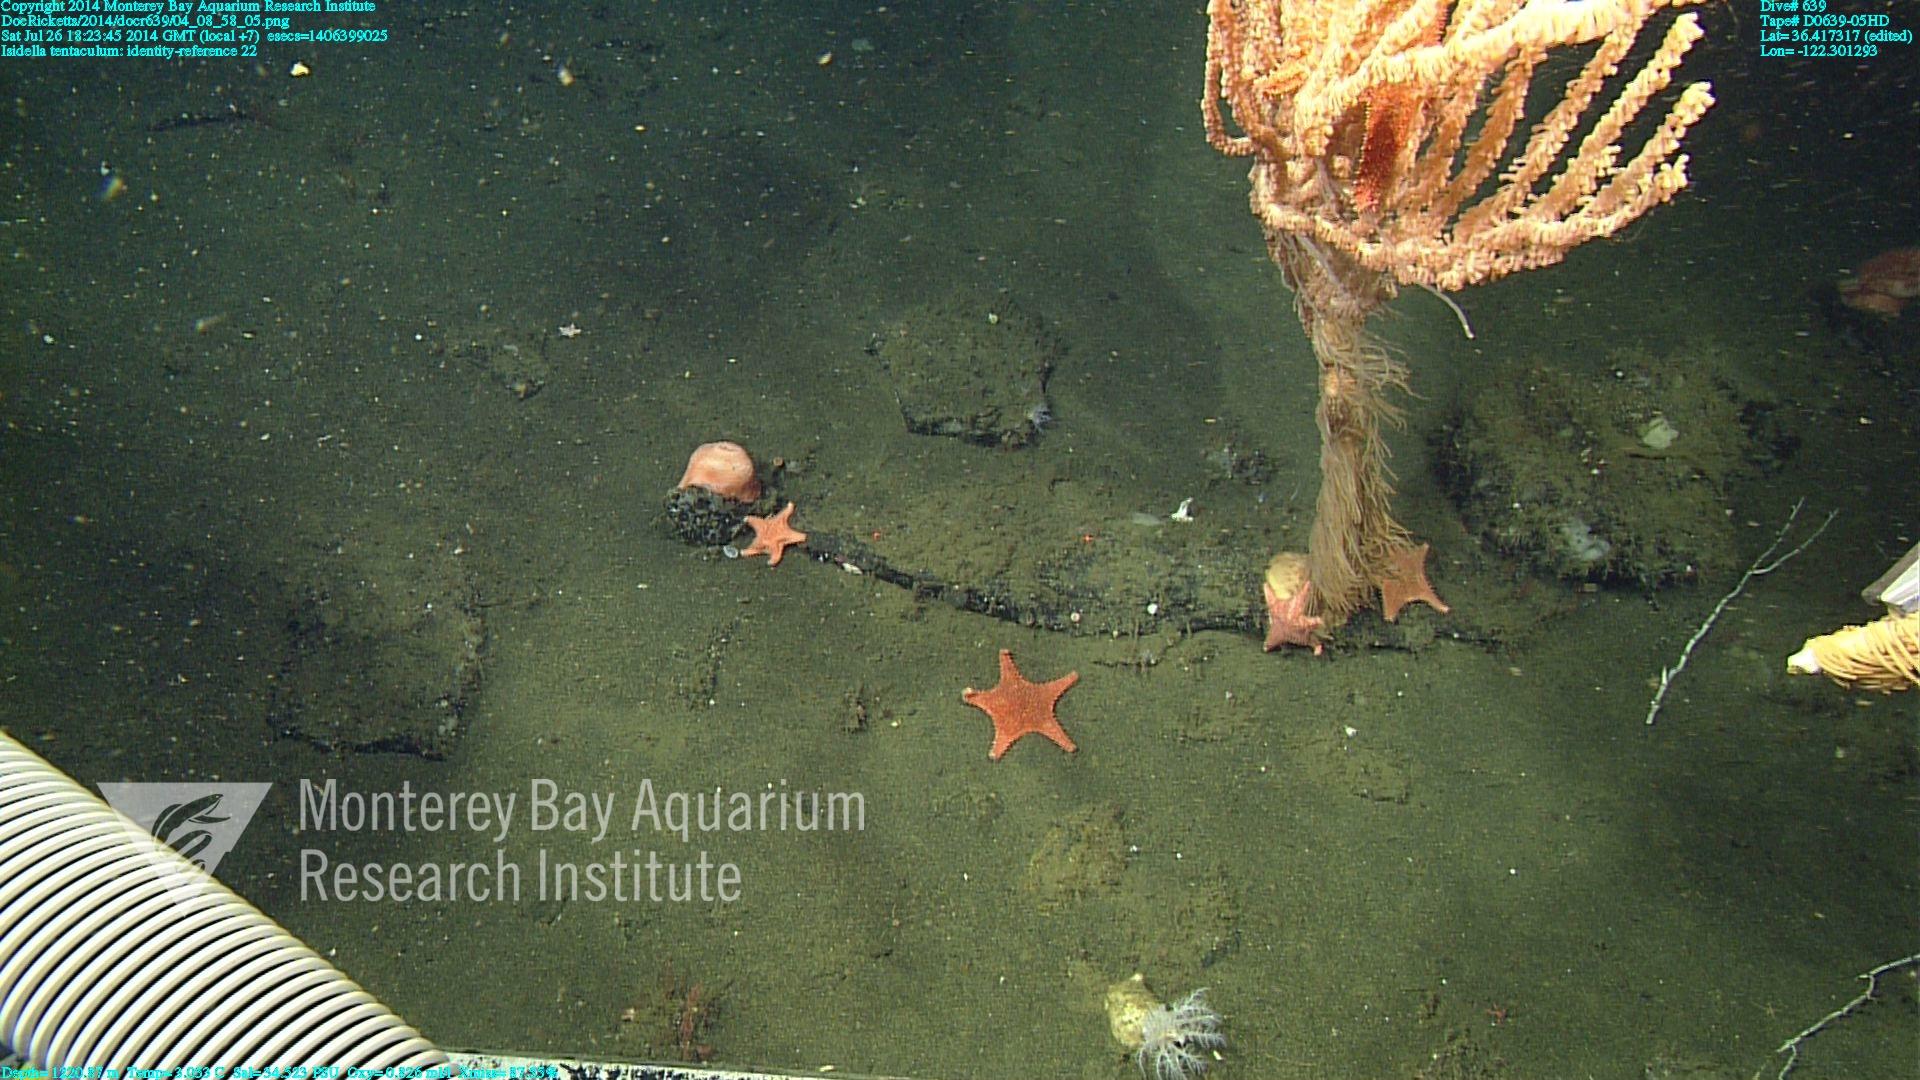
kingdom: Animalia
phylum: Cnidaria
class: Anthozoa
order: Scleralcyonacea
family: Keratoisididae
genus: Isidella
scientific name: Isidella tentaculum
